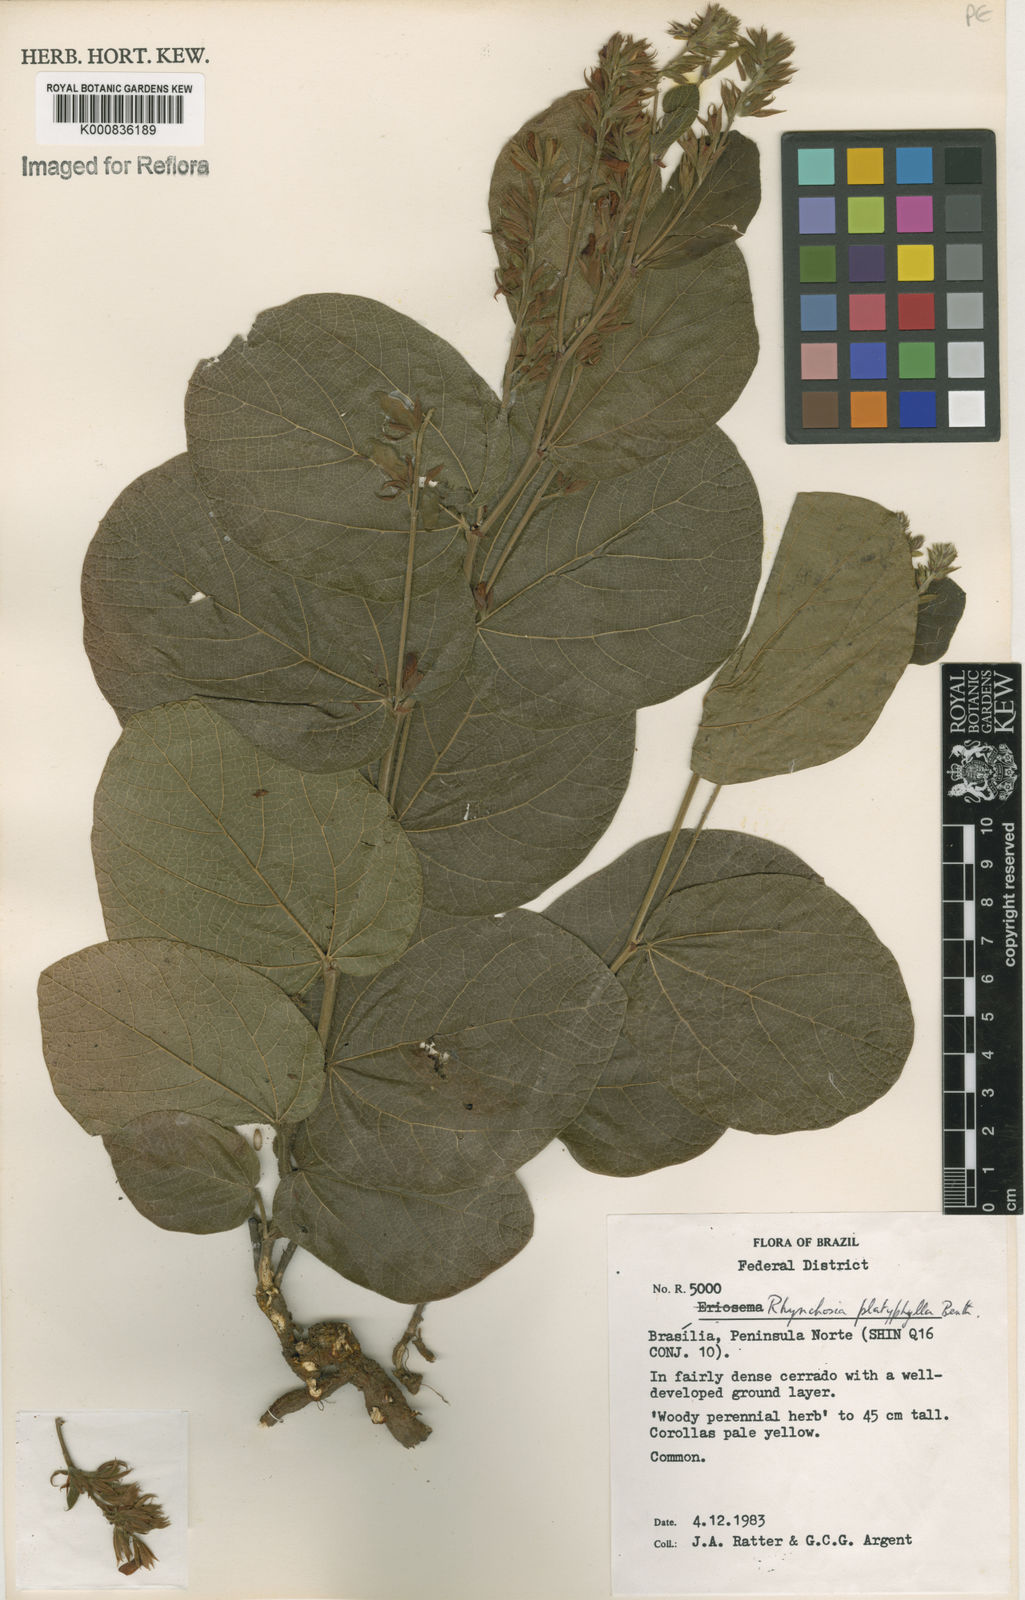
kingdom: Plantae
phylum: Tracheophyta
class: Magnoliopsida
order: Fabales
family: Fabaceae
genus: Rhynchosia
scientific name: Rhynchosia platyphylla
